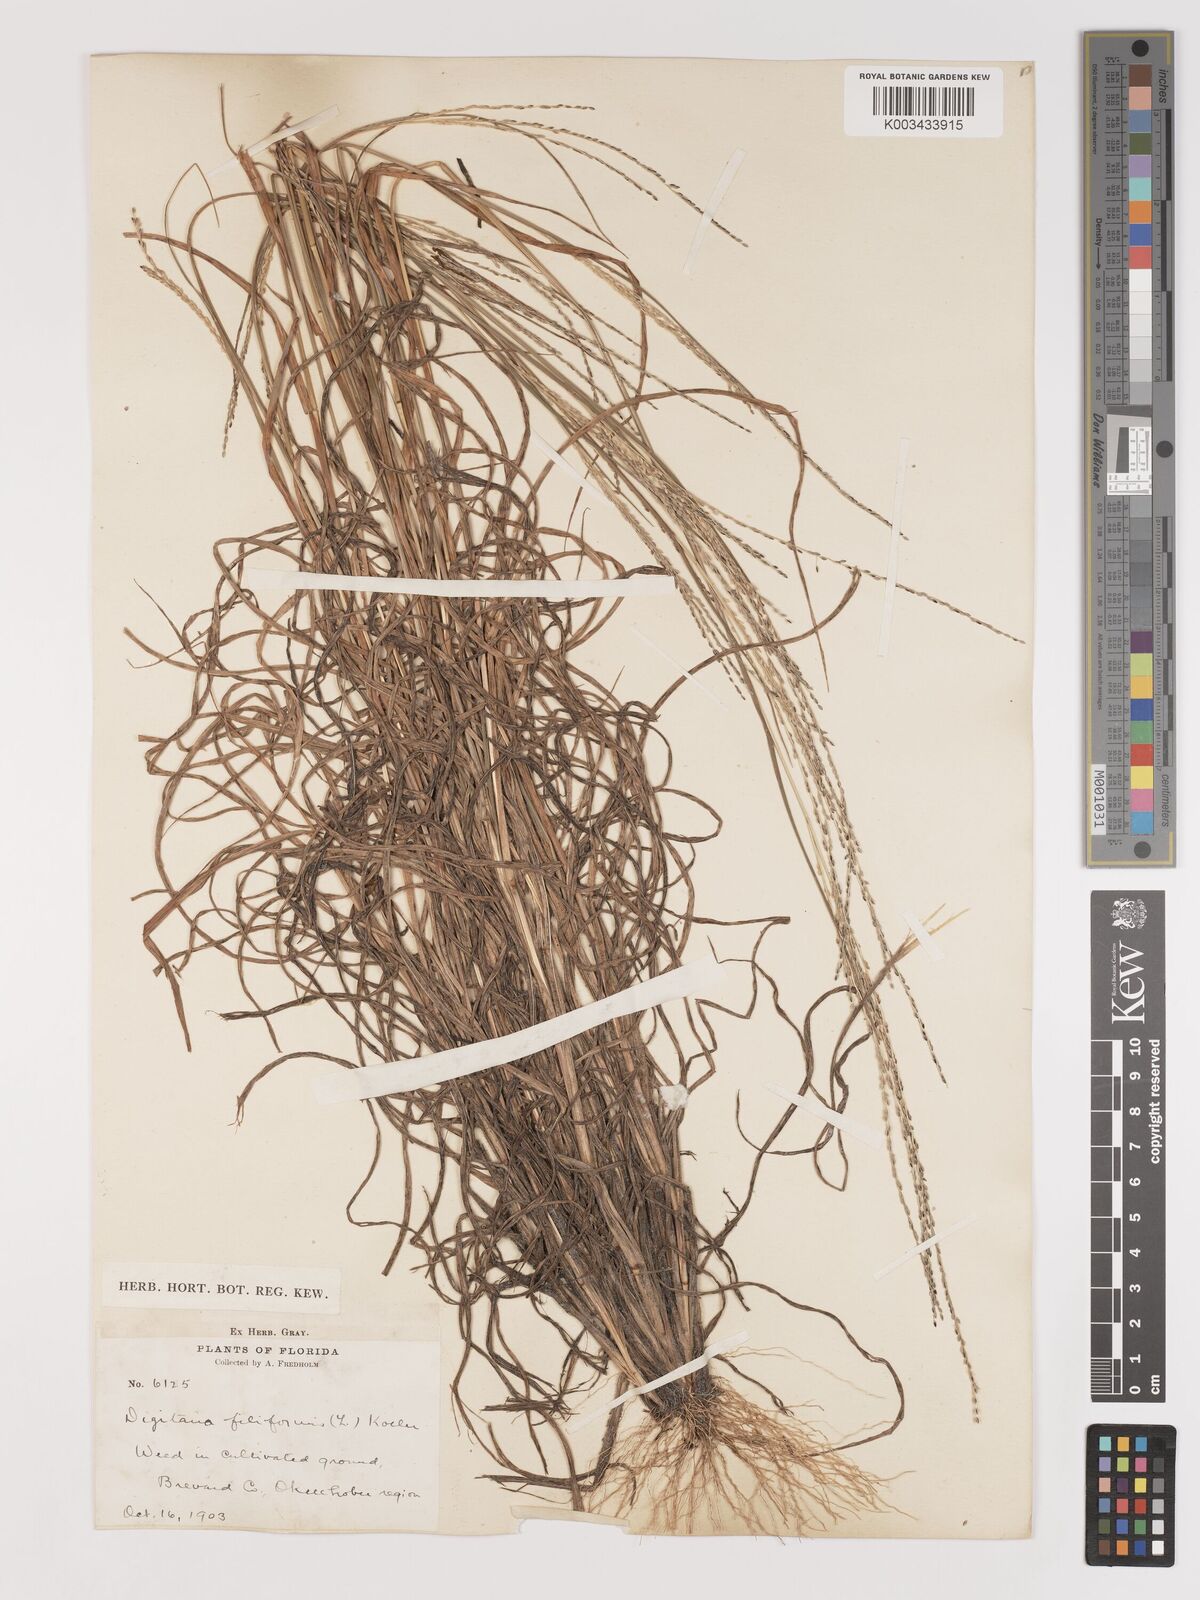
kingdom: Plantae
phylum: Tracheophyta
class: Liliopsida
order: Poales
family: Poaceae
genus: Digitaria
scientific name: Digitaria filiformis
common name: Slender crabgrass
